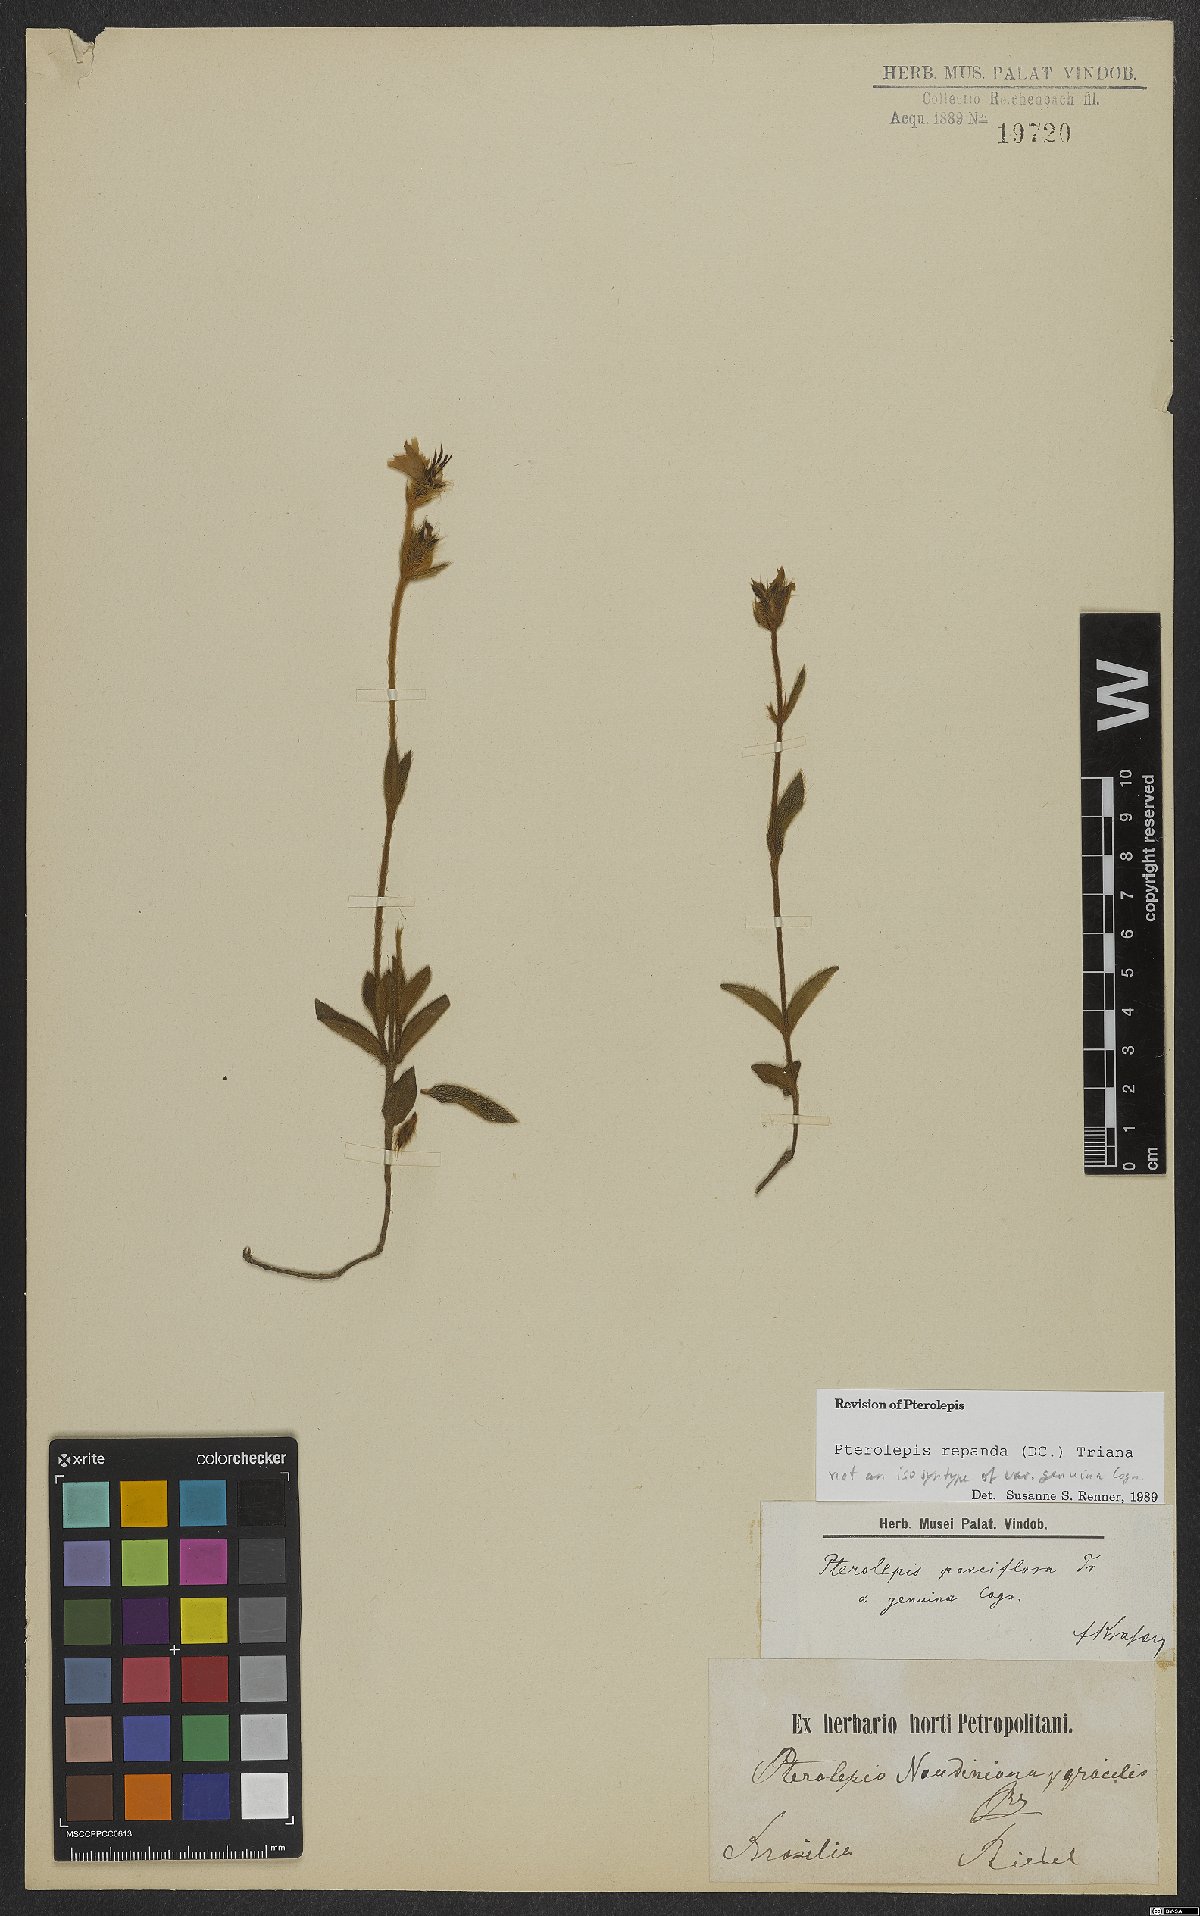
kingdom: Plantae
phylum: Tracheophyta
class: Magnoliopsida
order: Myrtales
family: Melastomataceae
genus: Pterolepis
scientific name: Pterolepis repanda
